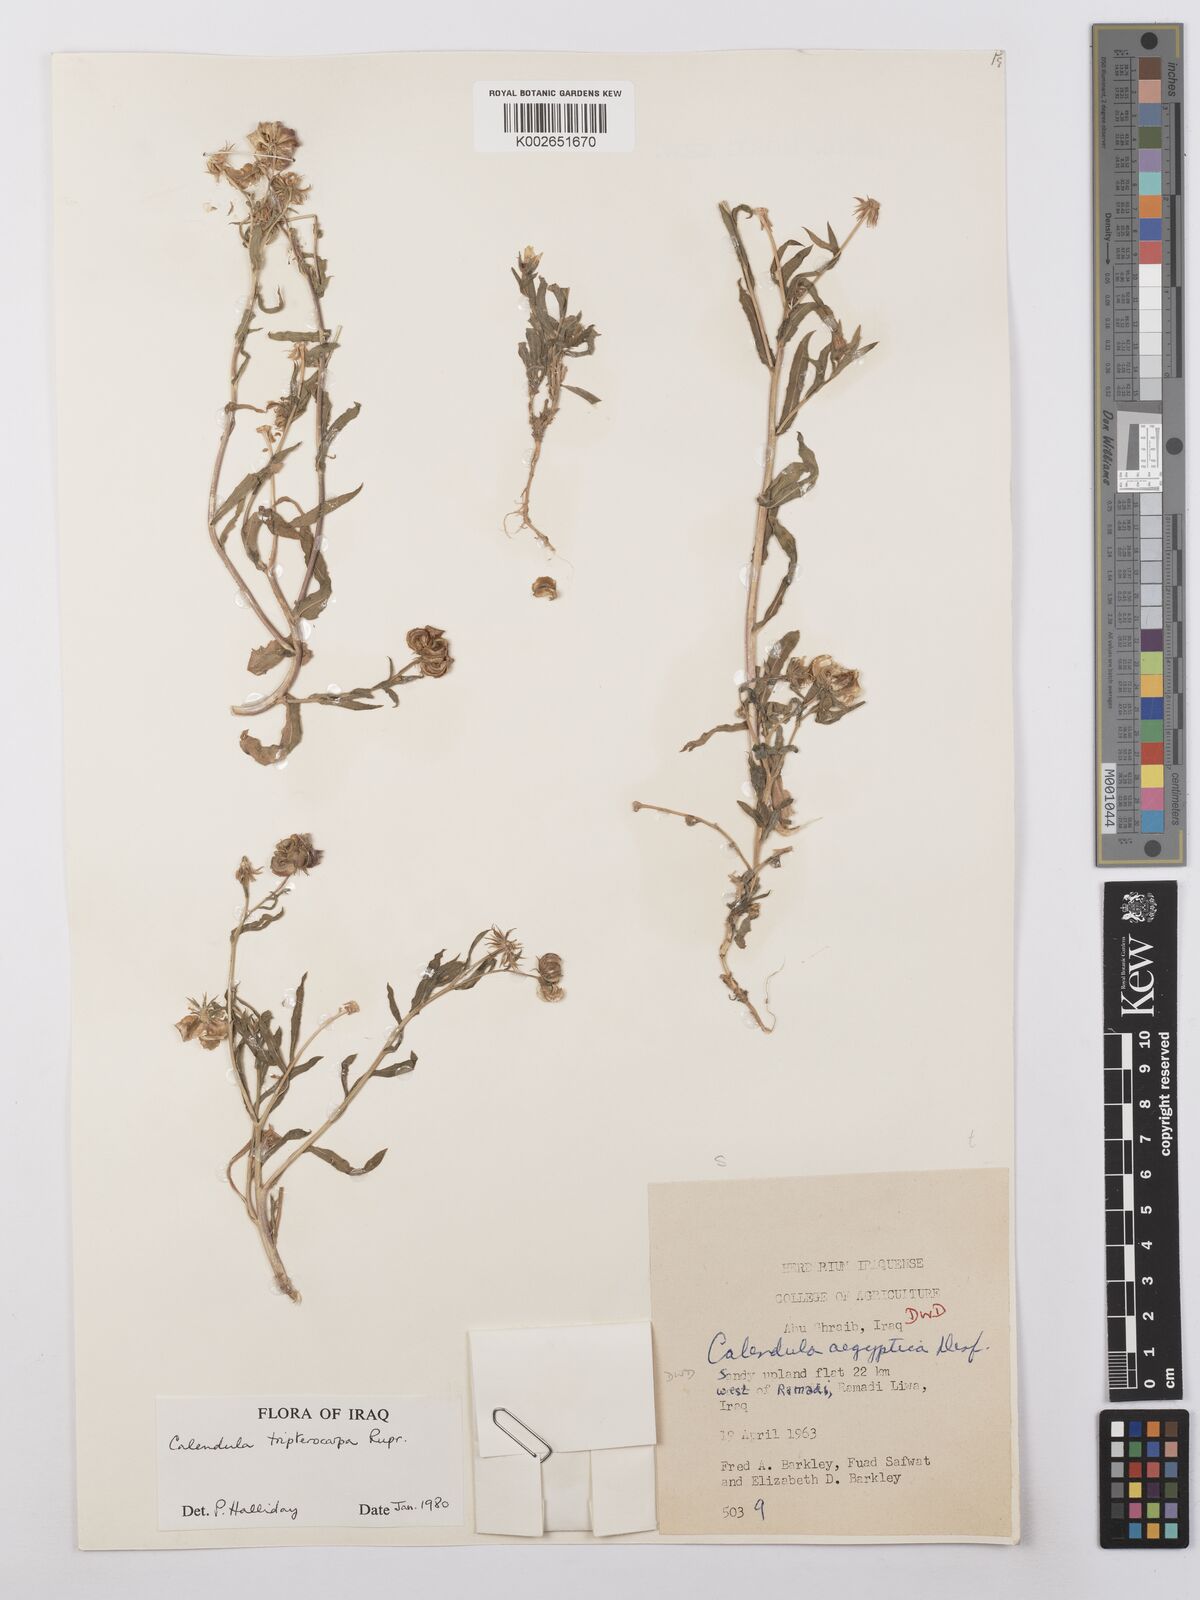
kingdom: Plantae
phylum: Tracheophyta
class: Magnoliopsida
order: Asterales
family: Asteraceae
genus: Calendula
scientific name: Calendula tripterocarpa
